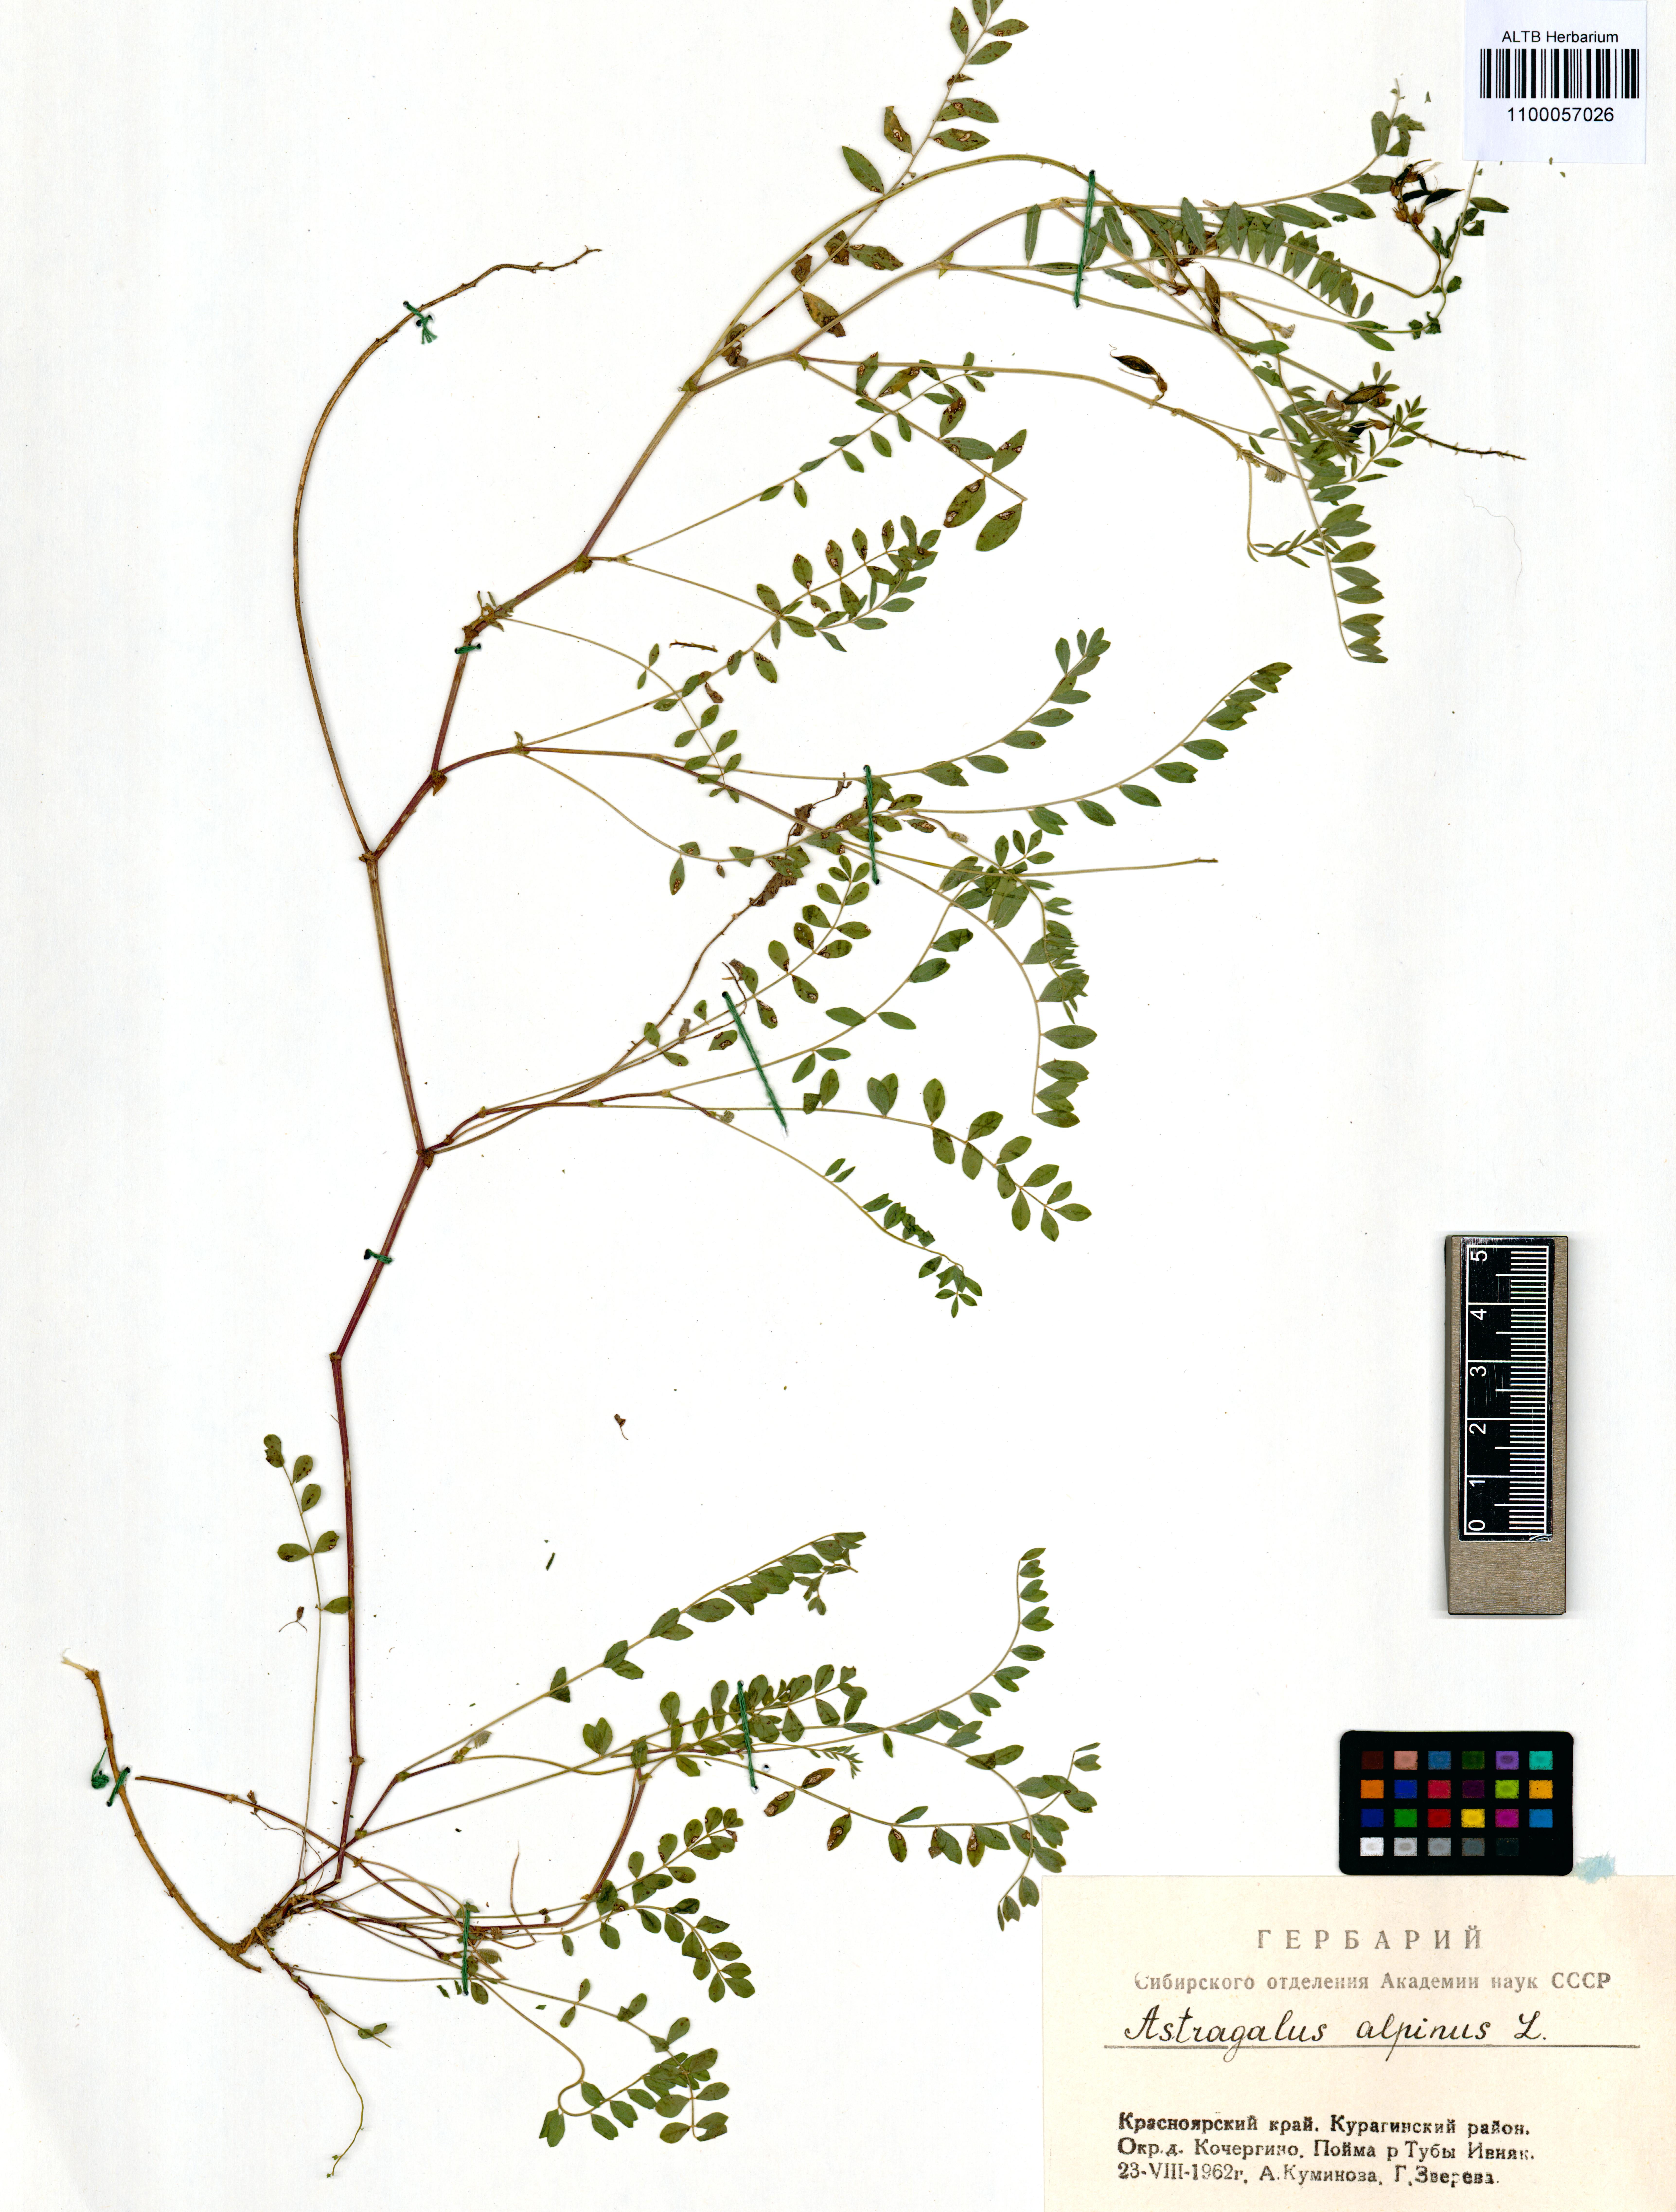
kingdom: Plantae
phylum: Tracheophyta
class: Magnoliopsida
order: Fabales
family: Fabaceae
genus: Astragalus
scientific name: Astragalus alpinus
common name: Alpine milk-vetch
